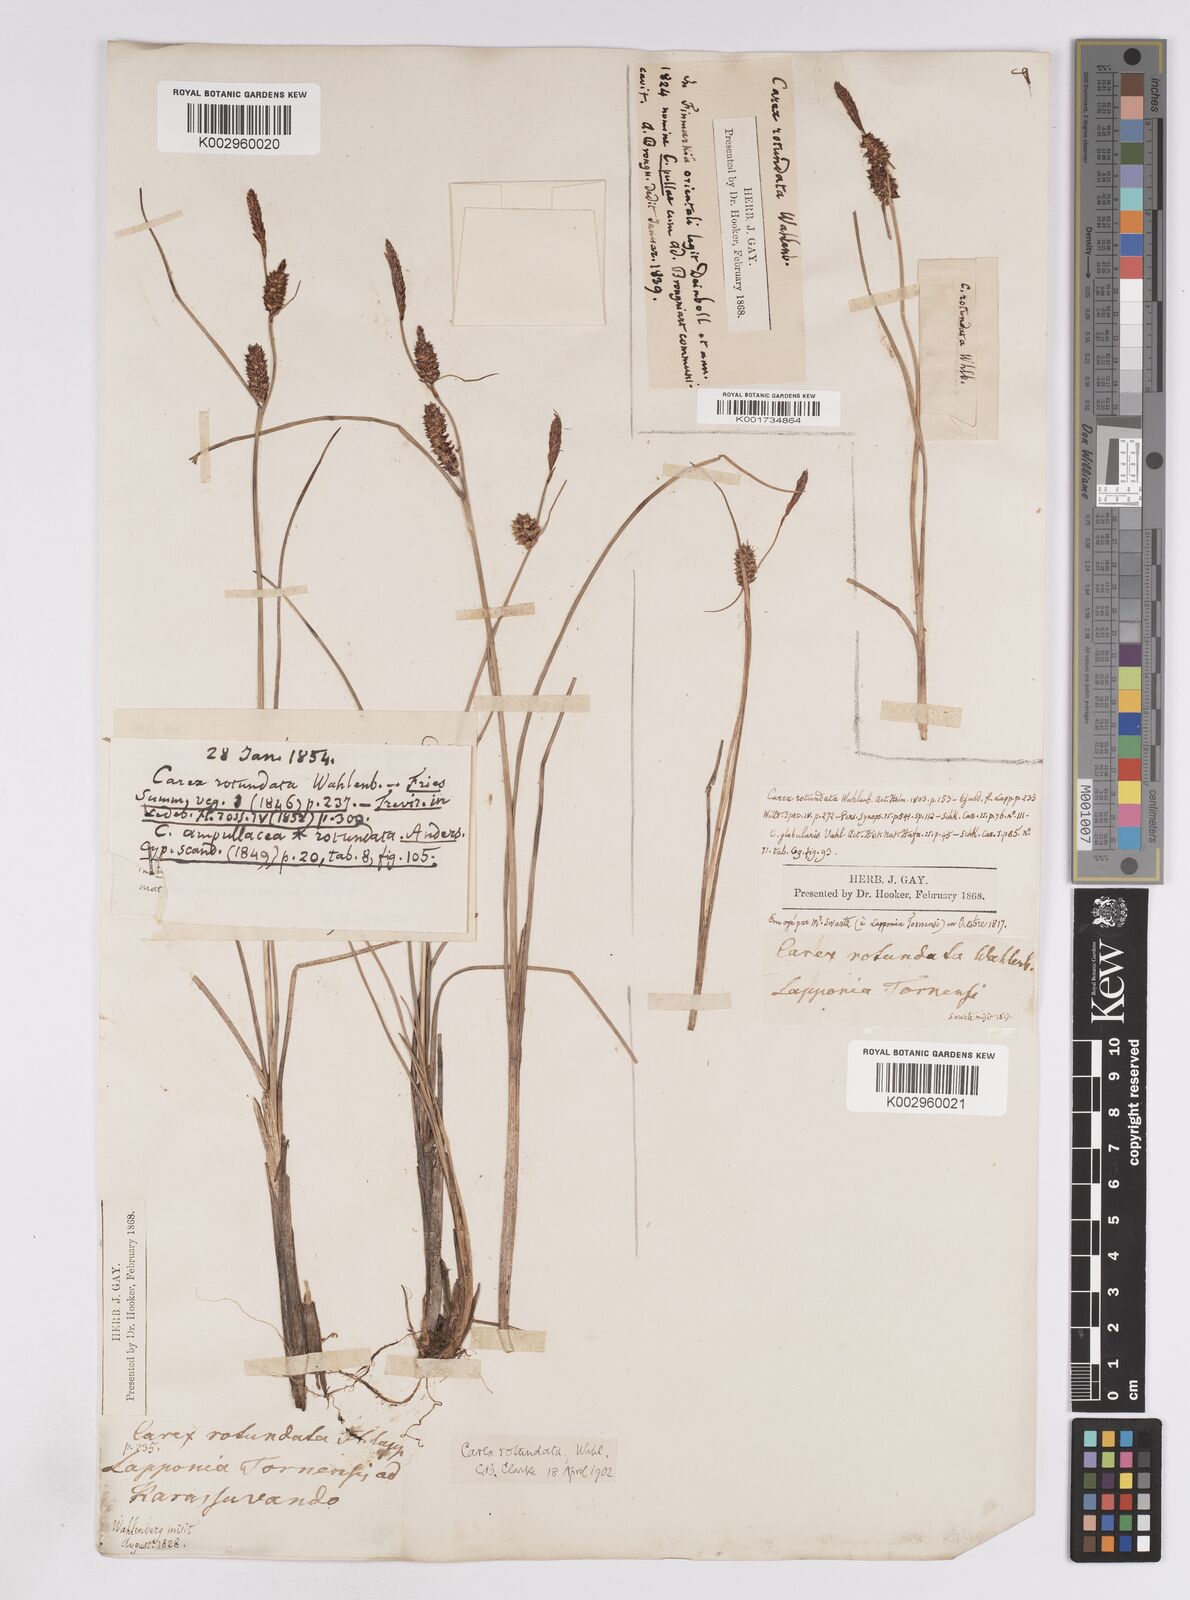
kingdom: Plantae
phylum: Tracheophyta
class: Liliopsida
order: Poales
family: Cyperaceae
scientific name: Cyperaceae
